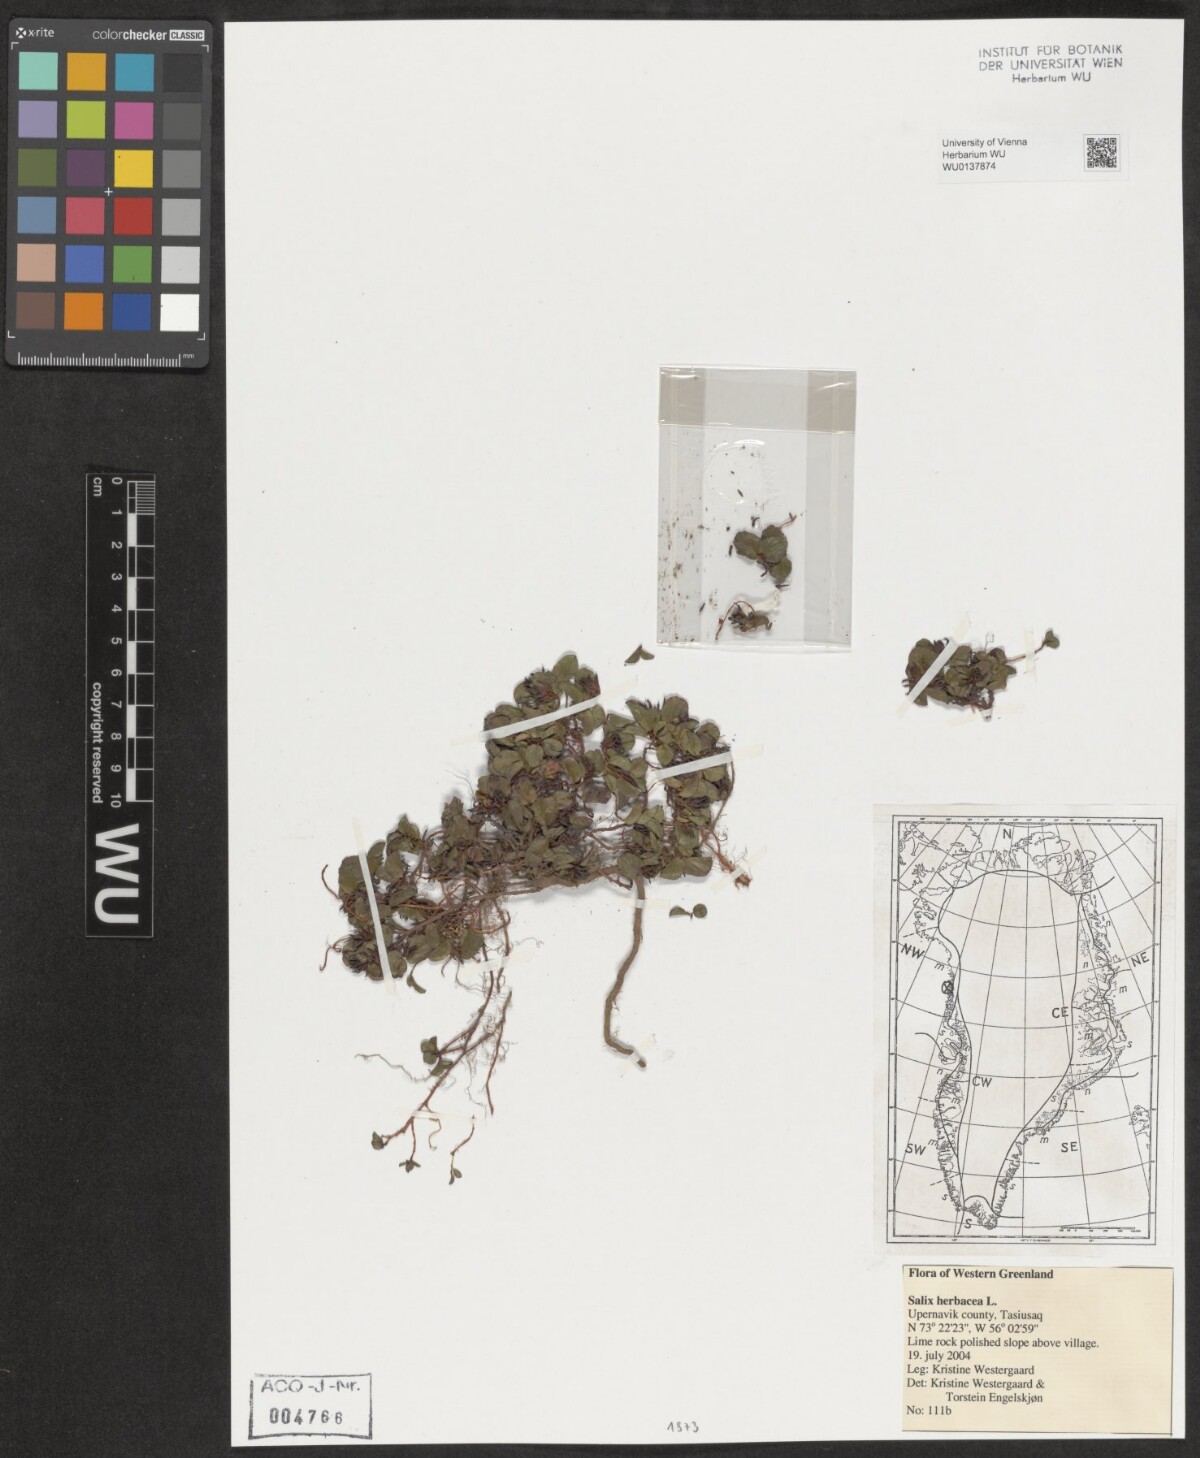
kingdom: Plantae
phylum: Tracheophyta
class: Magnoliopsida
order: Malpighiales
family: Salicaceae
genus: Salix
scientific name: Salix herbacea
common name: Dwarf willow
